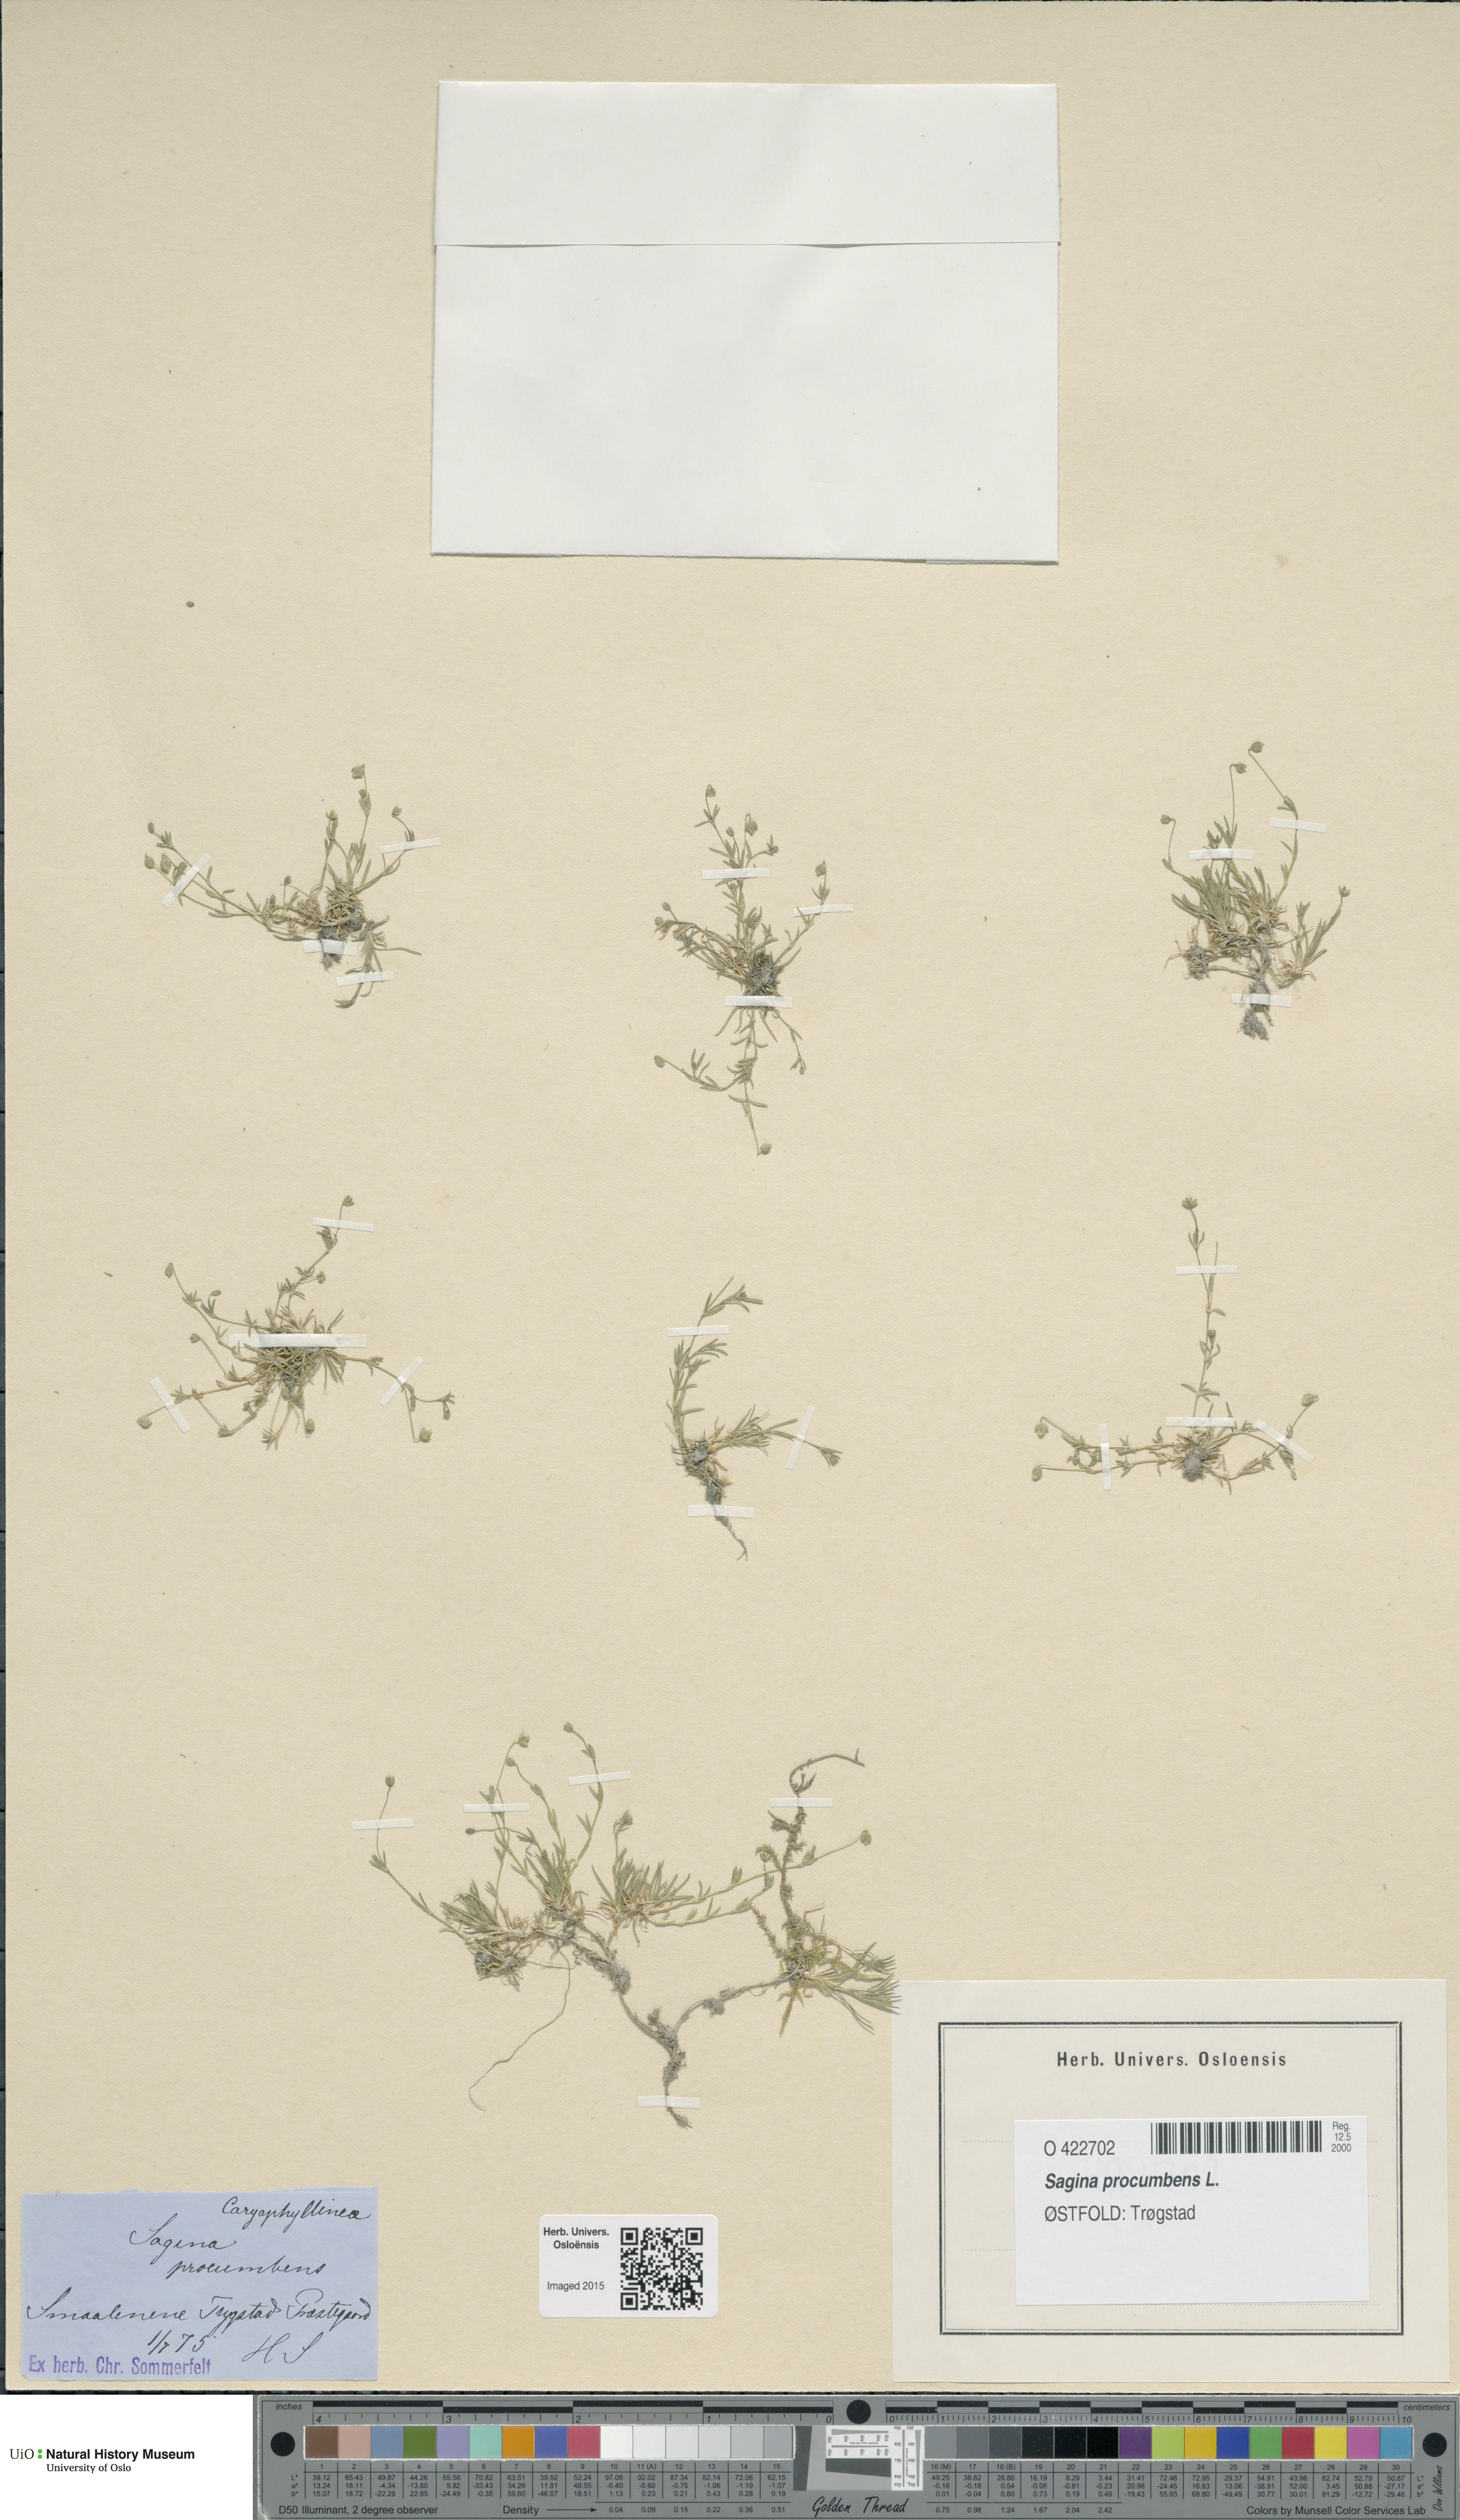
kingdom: Plantae
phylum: Tracheophyta
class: Magnoliopsida
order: Caryophyllales
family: Caryophyllaceae
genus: Sagina
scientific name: Sagina procumbens
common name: Procumbent pearlwort
